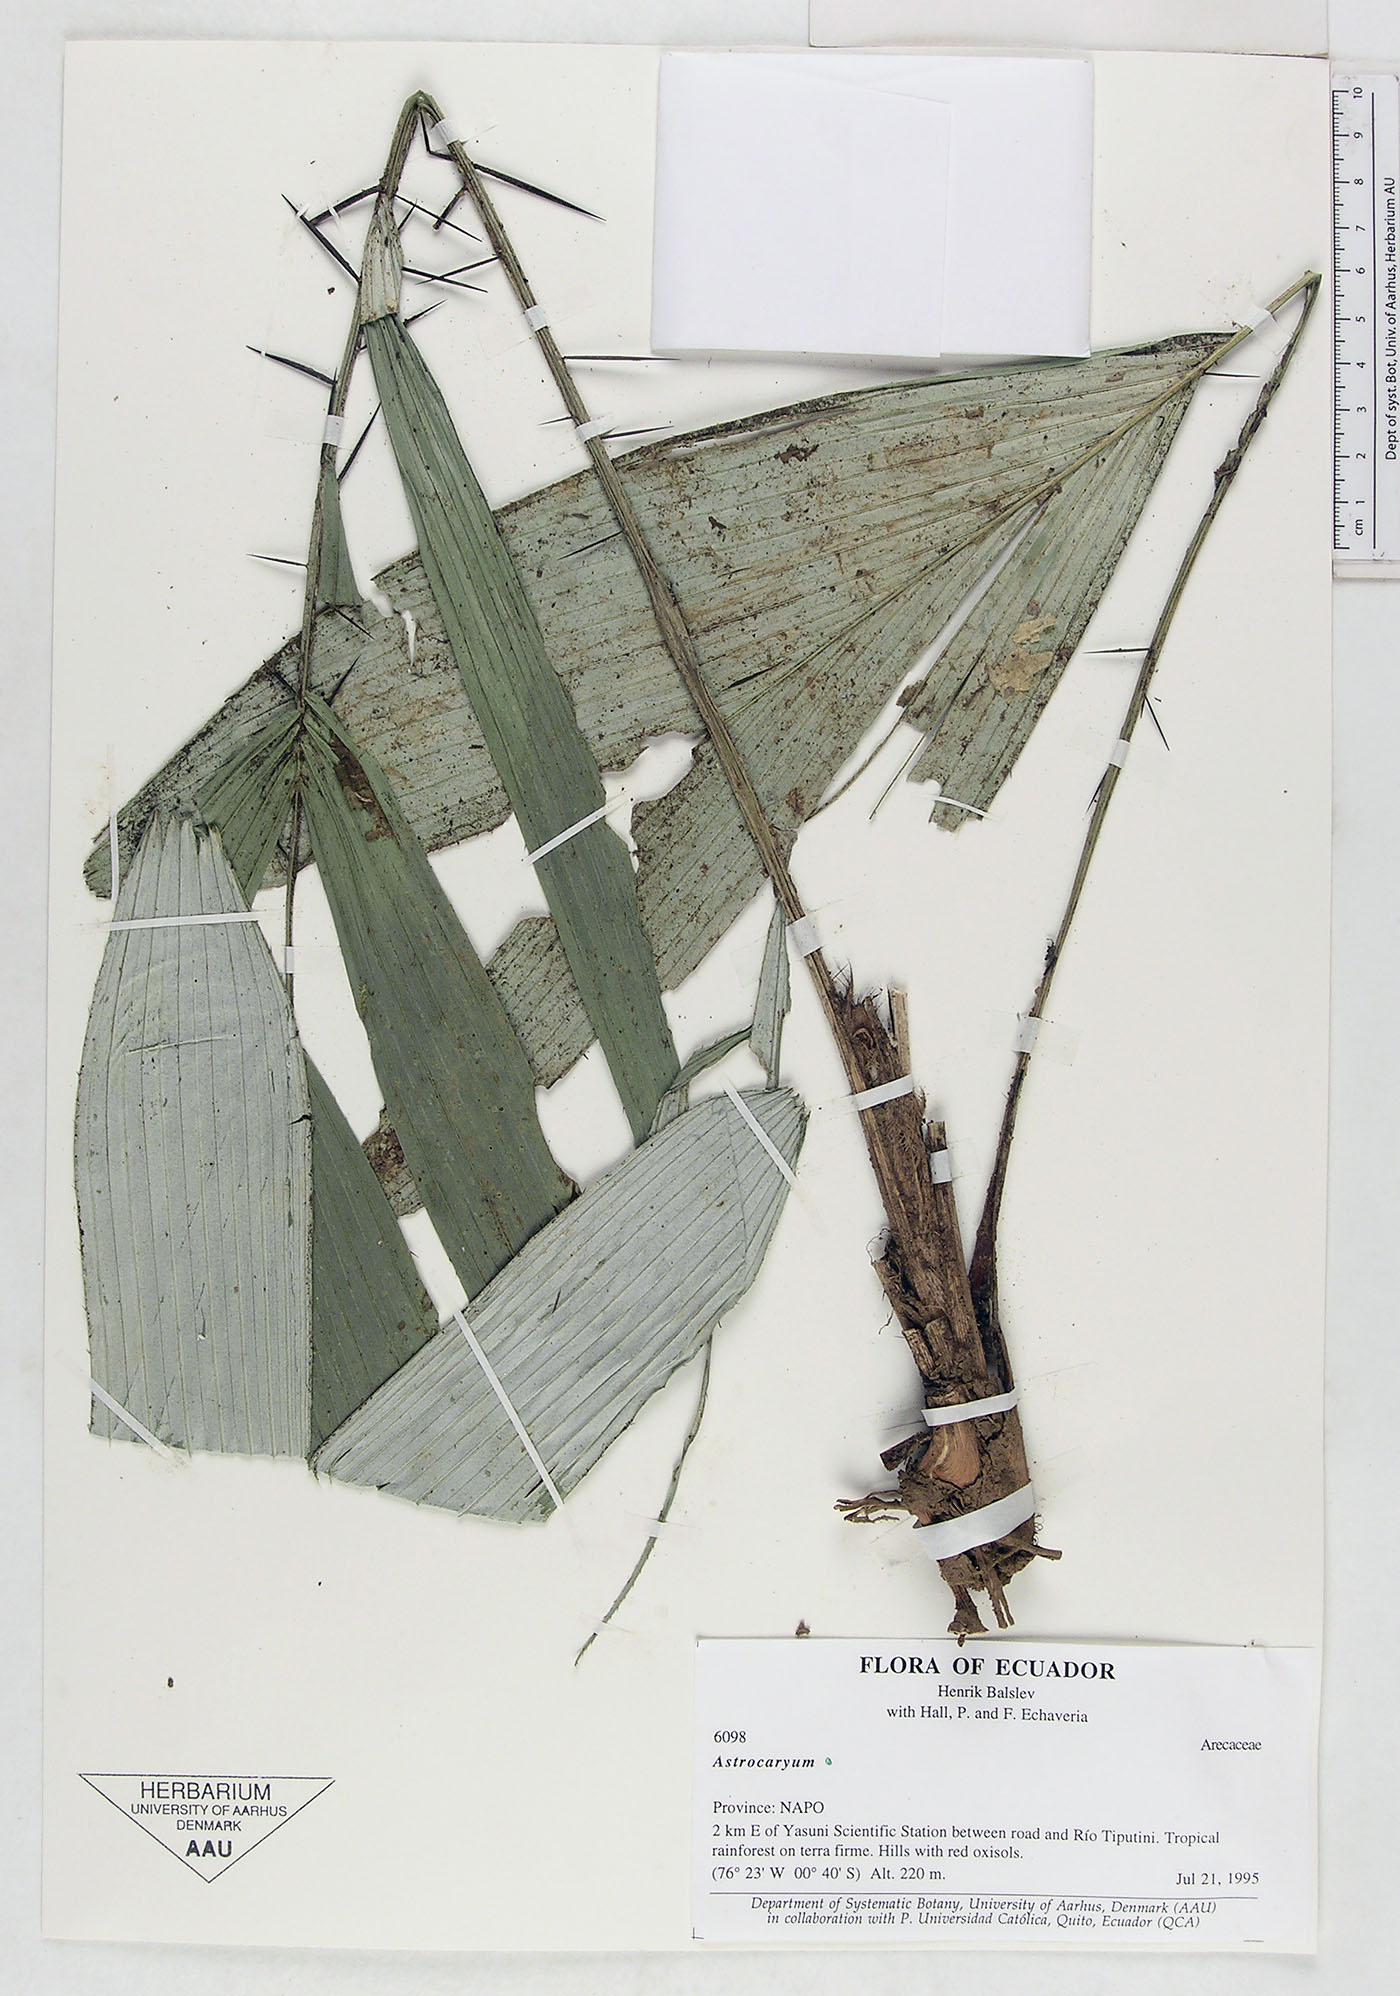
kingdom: Plantae
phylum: Tracheophyta
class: Liliopsida
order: Arecales
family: Arecaceae
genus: Astrocaryum
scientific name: Astrocaryum
